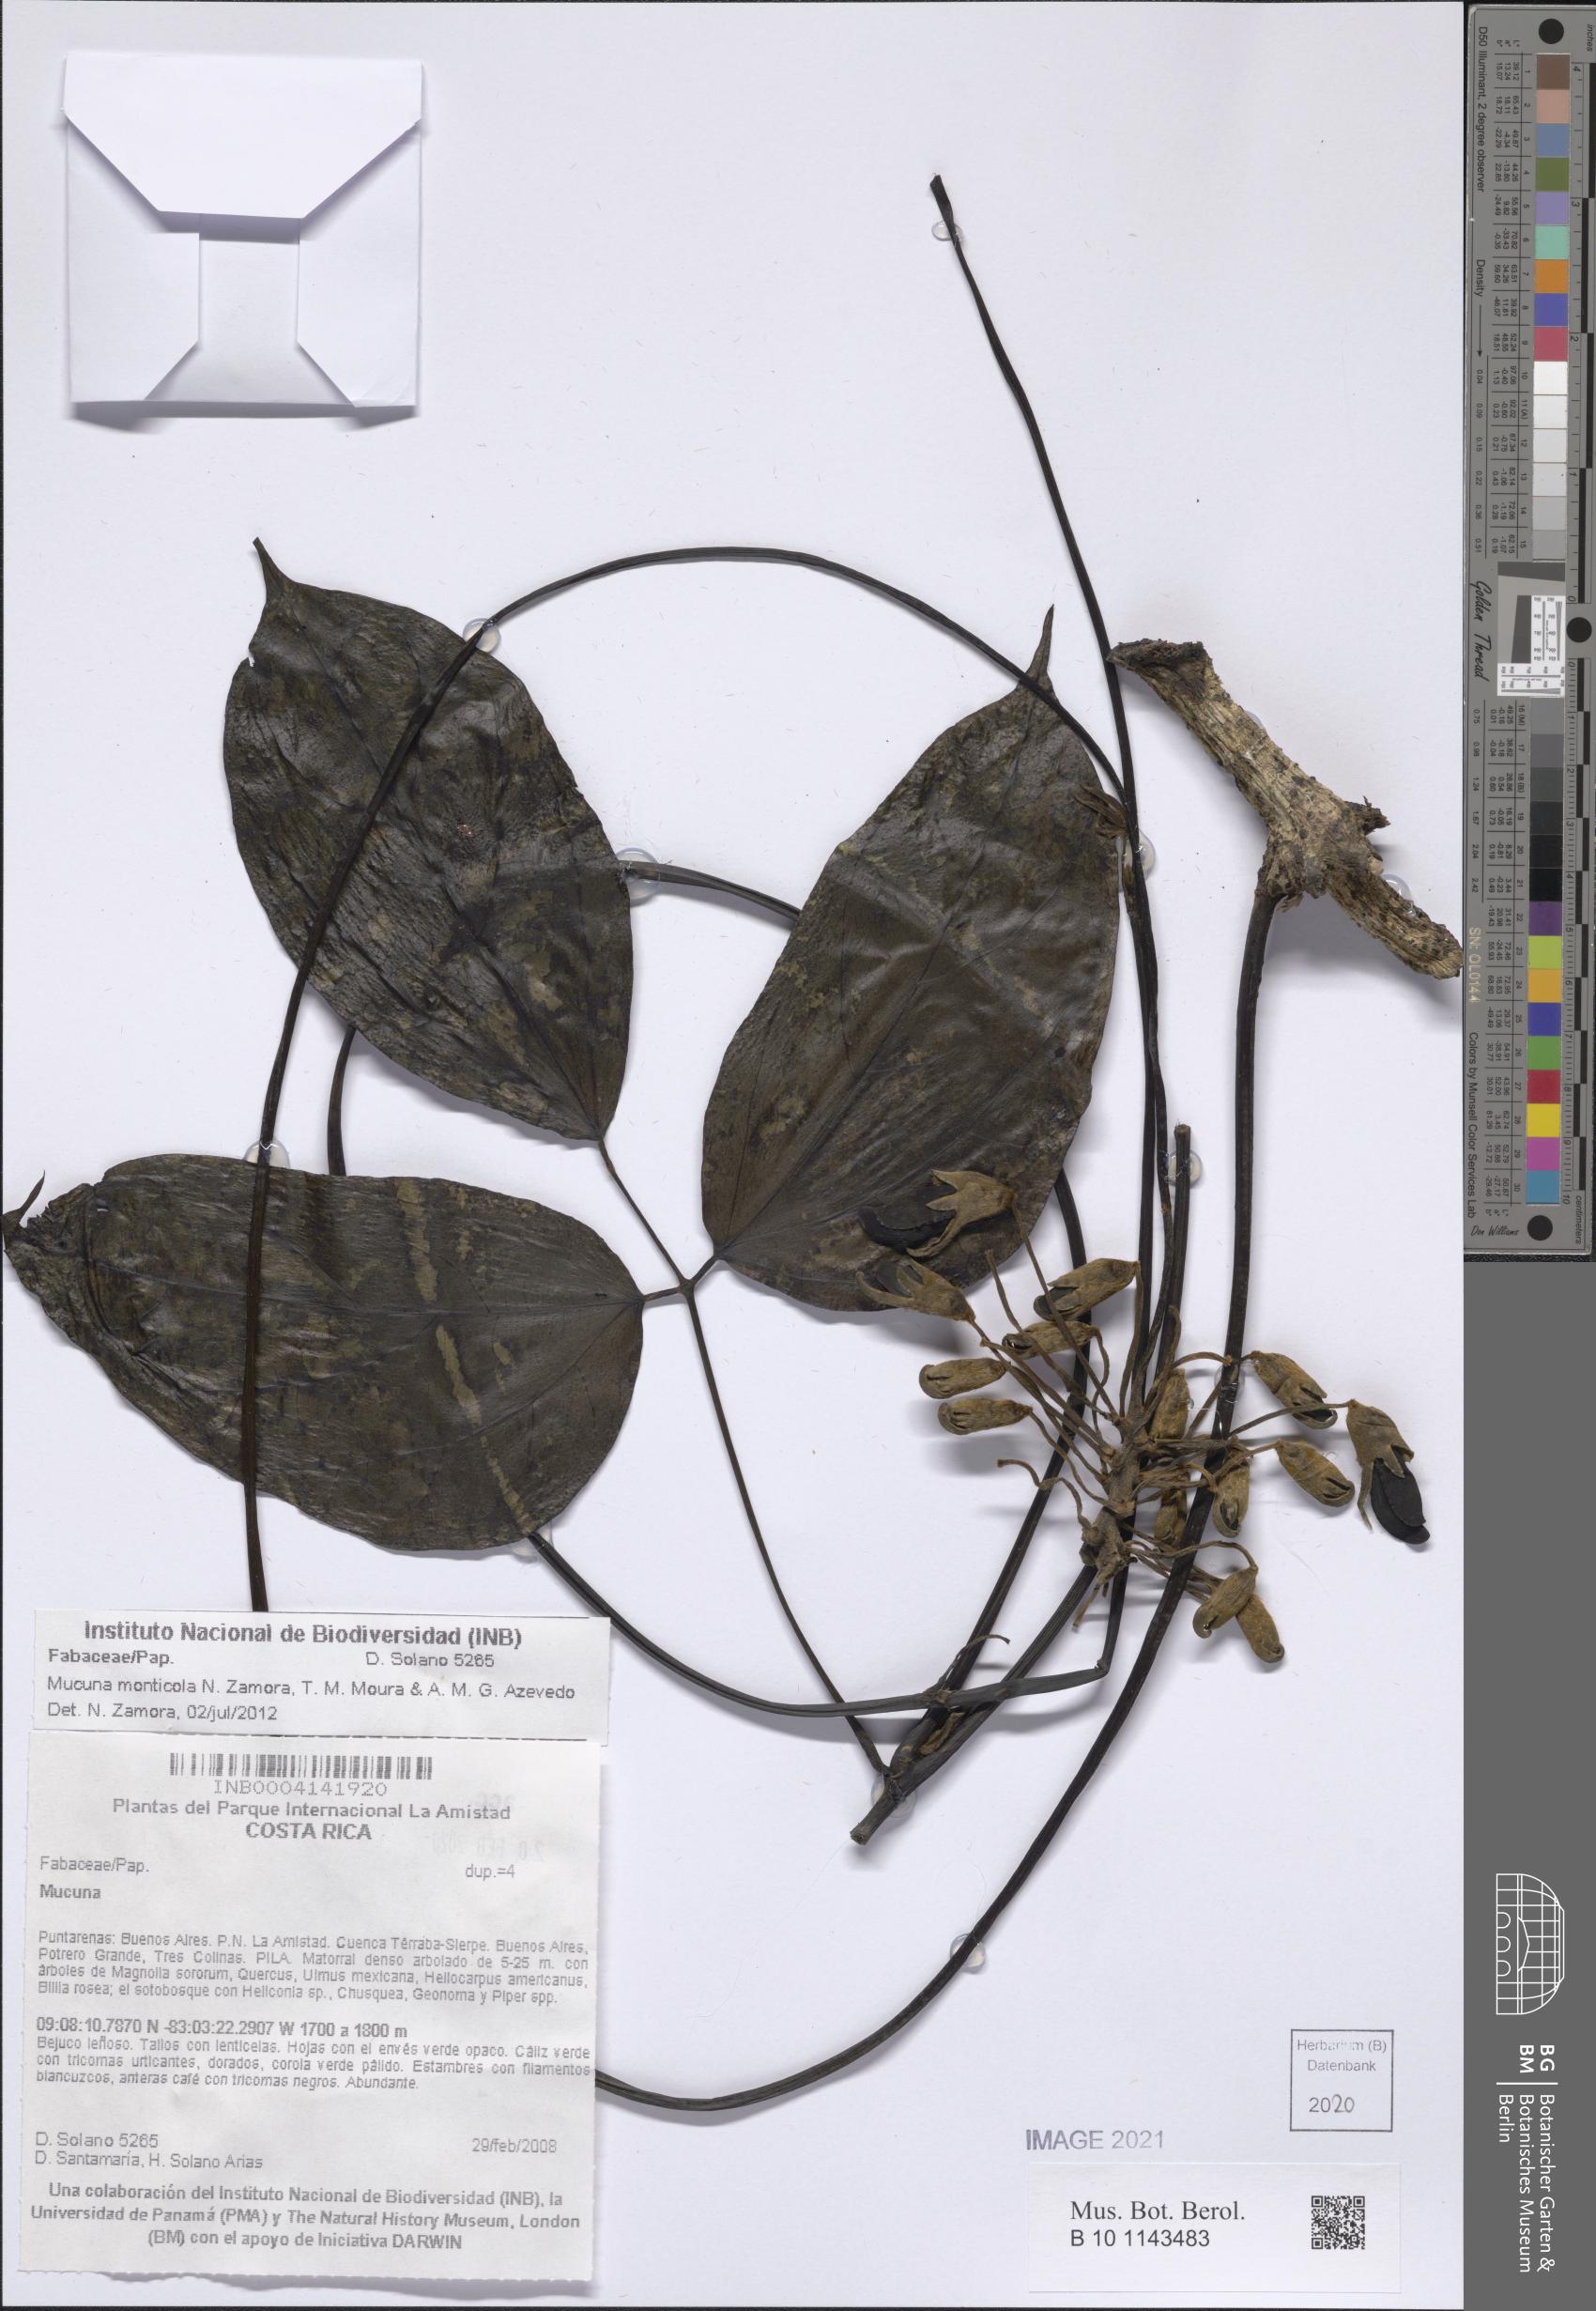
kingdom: Fungi
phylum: Basidiomycota
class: Agaricomycetes
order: Agaricales
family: Mycenaceae
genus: Mycena
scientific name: Mycena corticola
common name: Bark mycena
